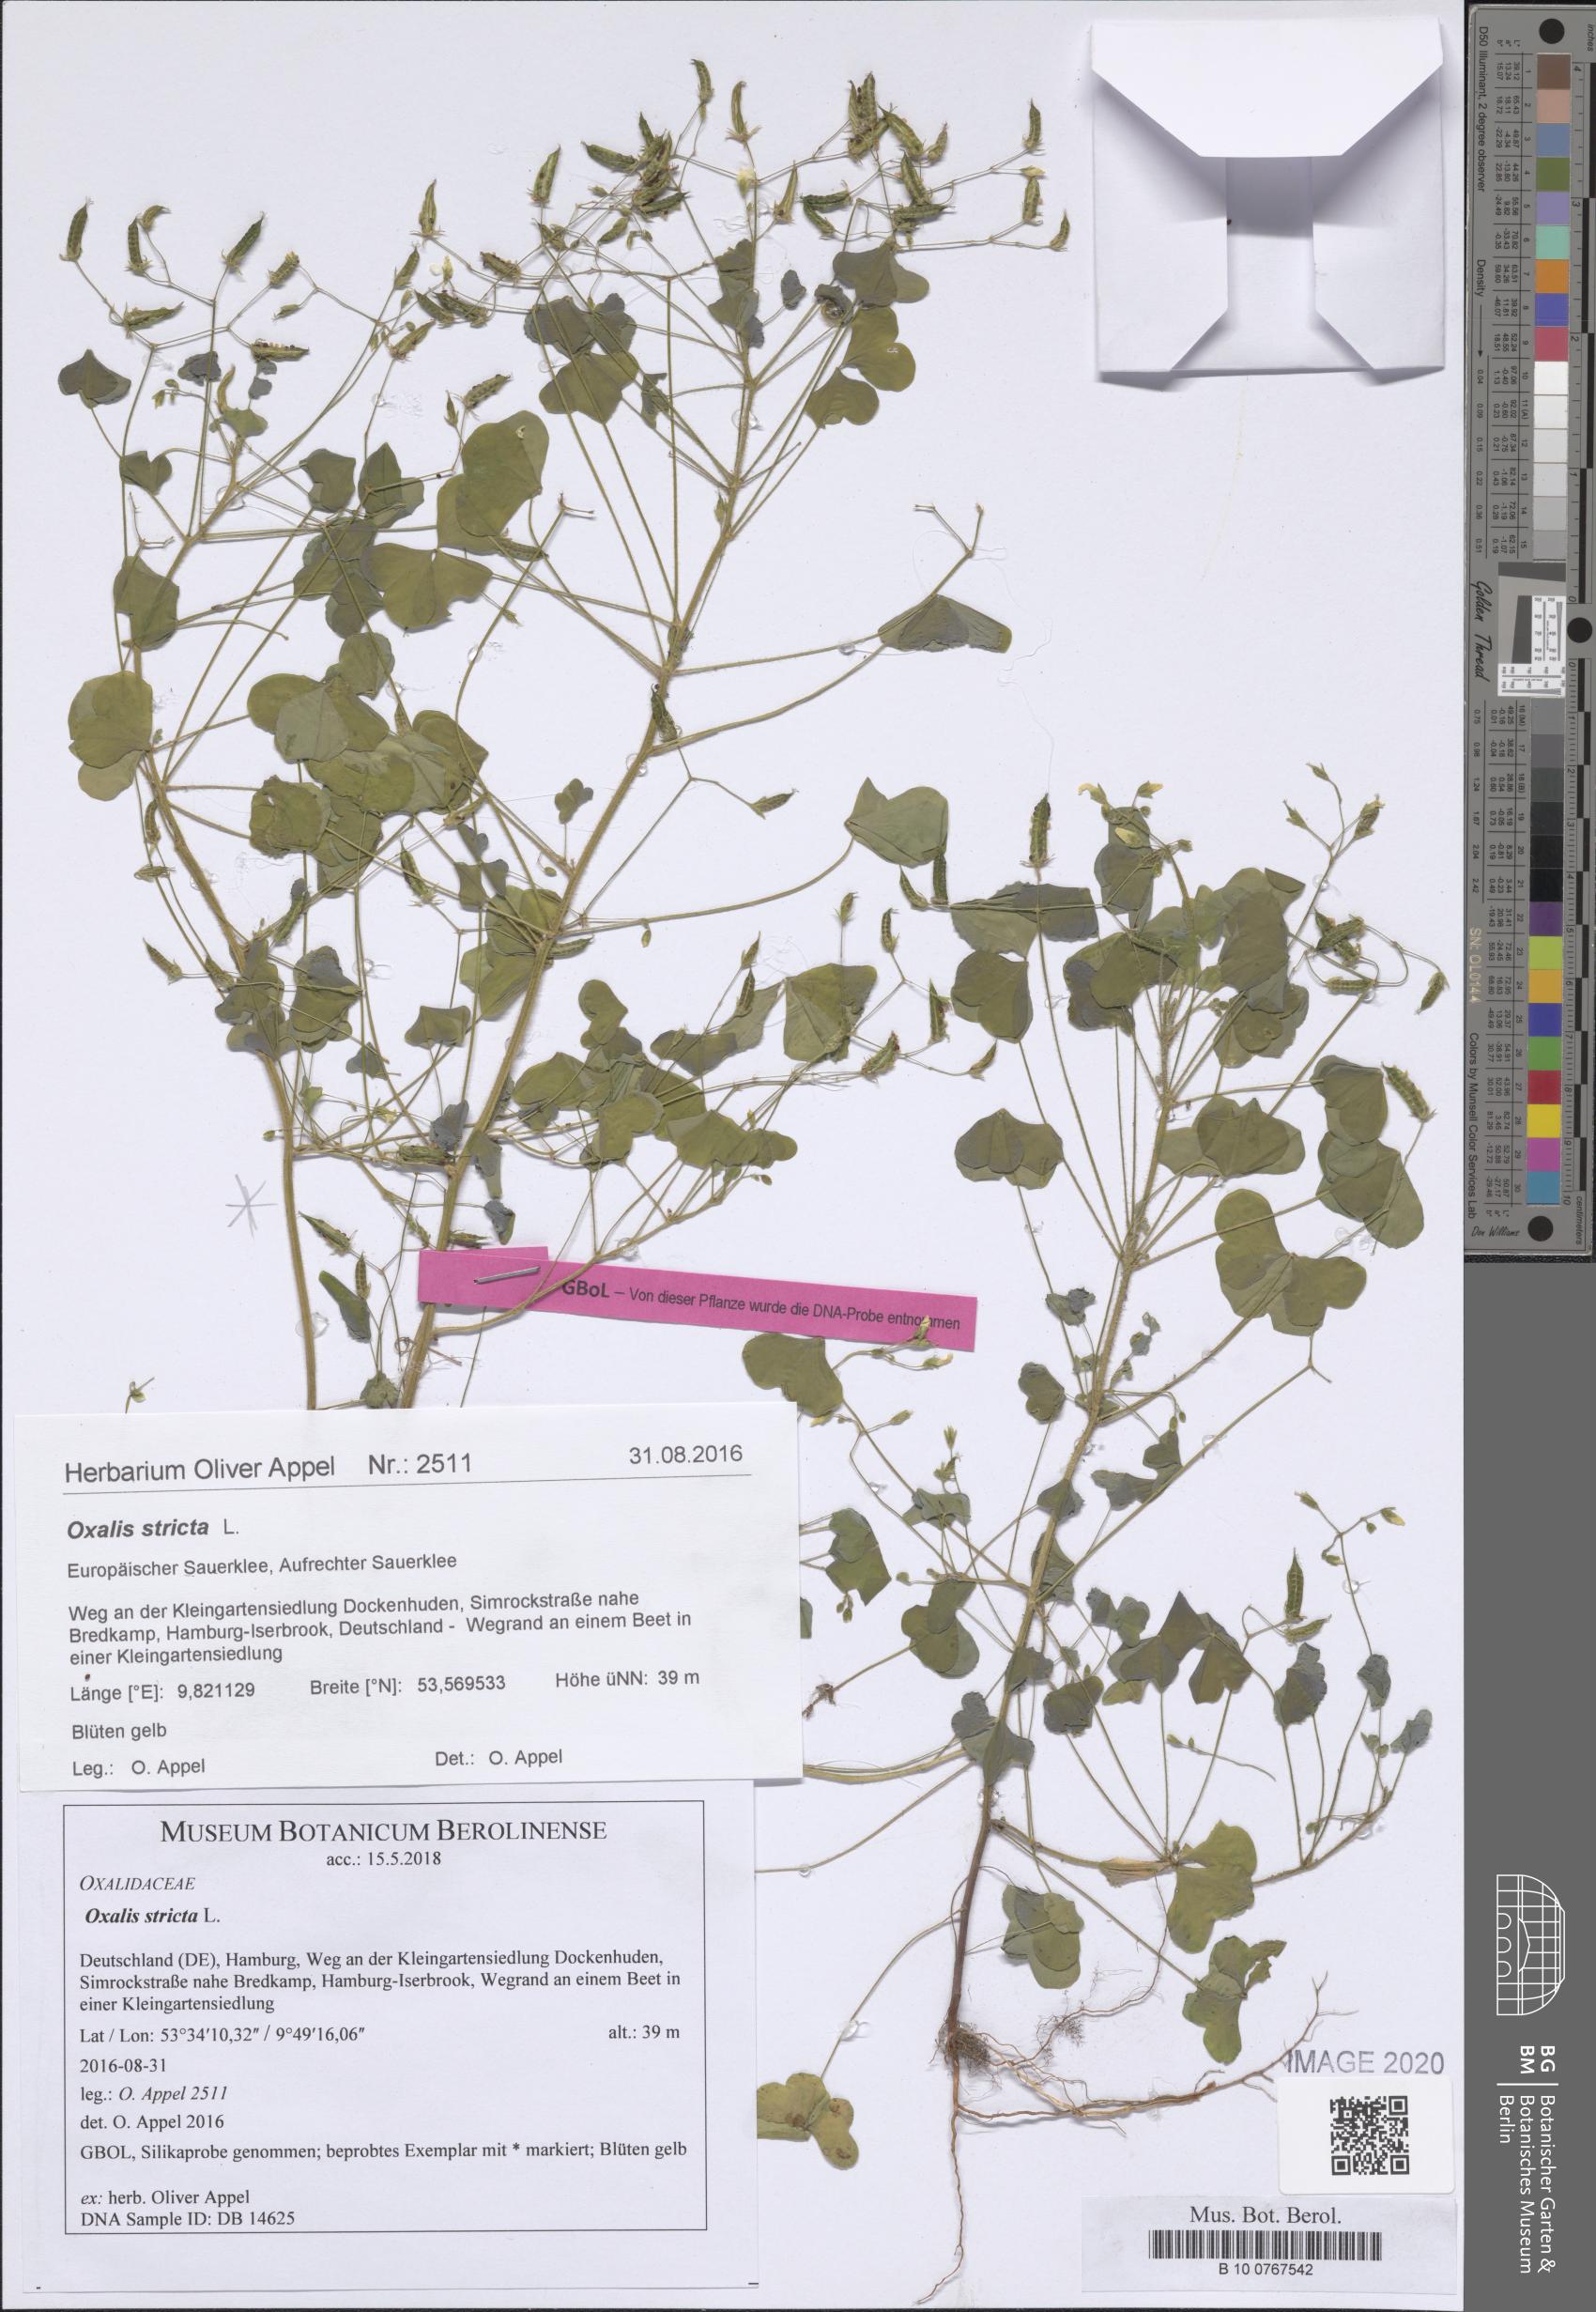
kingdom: Plantae
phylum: Tracheophyta
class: Magnoliopsida
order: Oxalidales
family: Oxalidaceae
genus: Oxalis
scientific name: Oxalis stricta
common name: Upright yellow-sorrel
